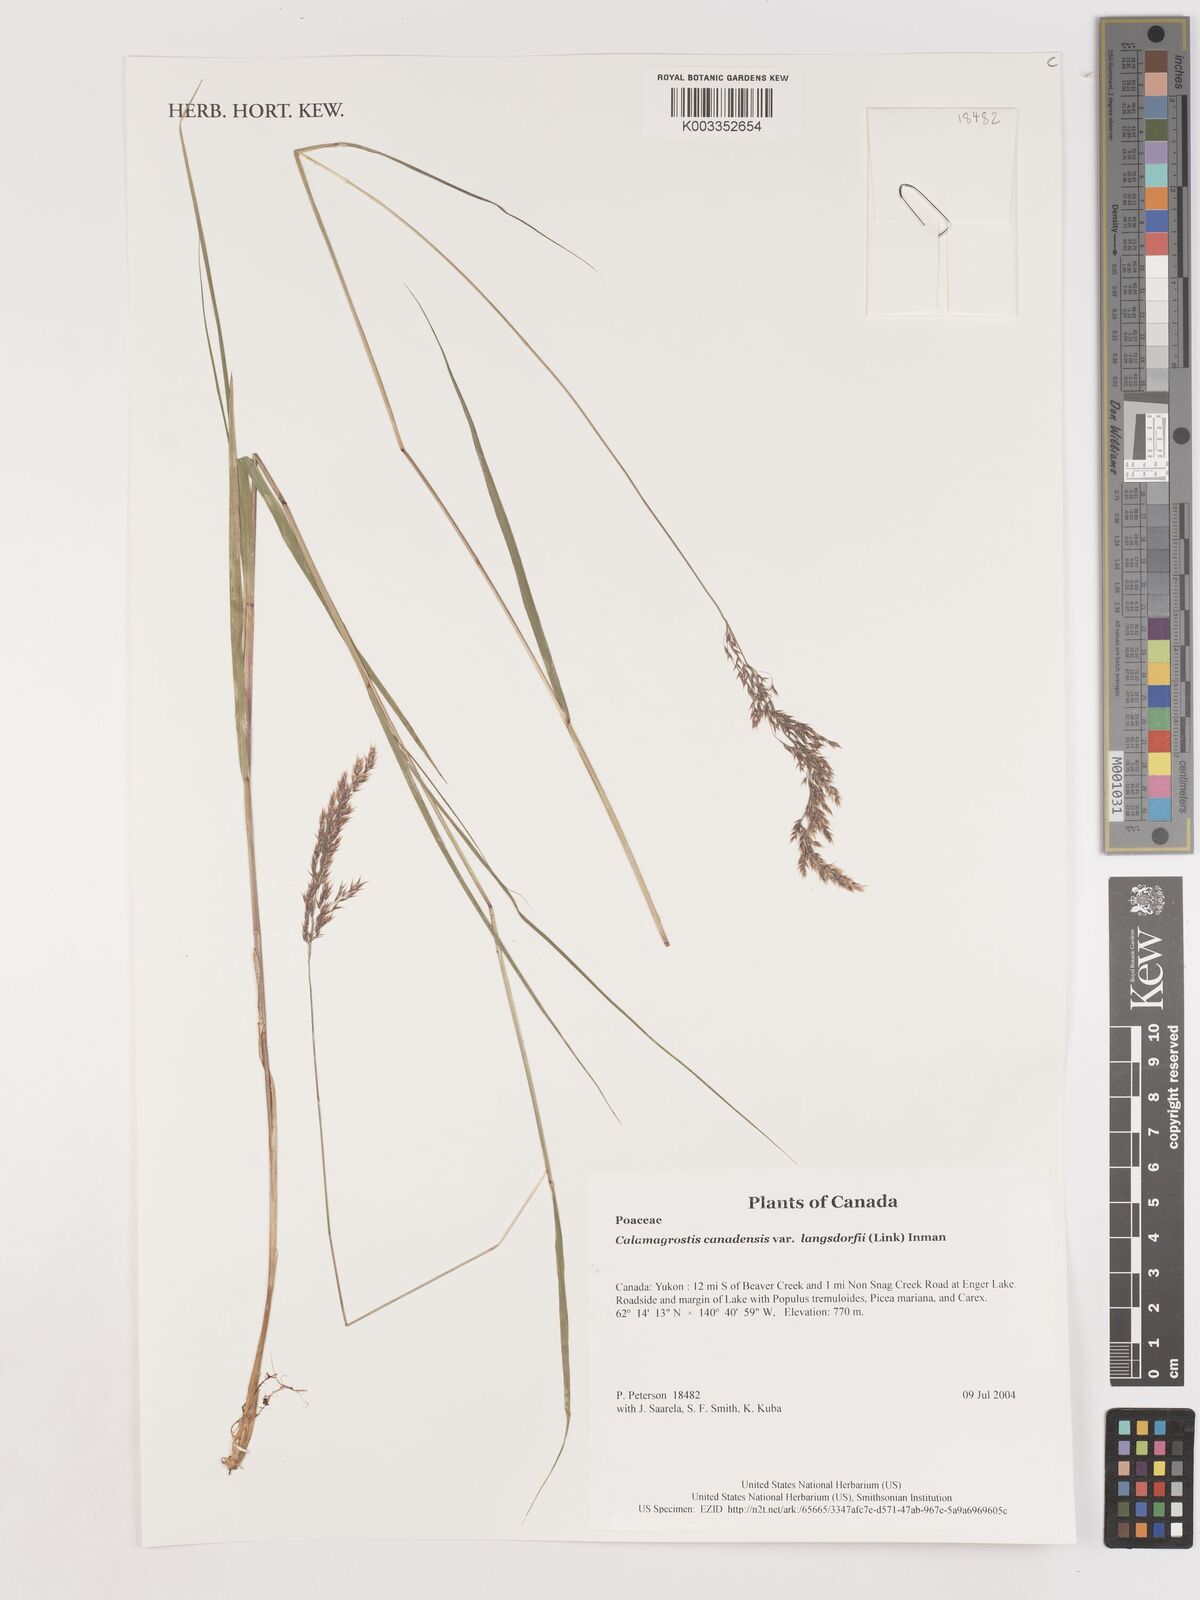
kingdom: Plantae
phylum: Tracheophyta
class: Liliopsida
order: Poales
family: Poaceae
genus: Calamagrostis
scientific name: Calamagrostis canadensis
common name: Canada bluejoint
